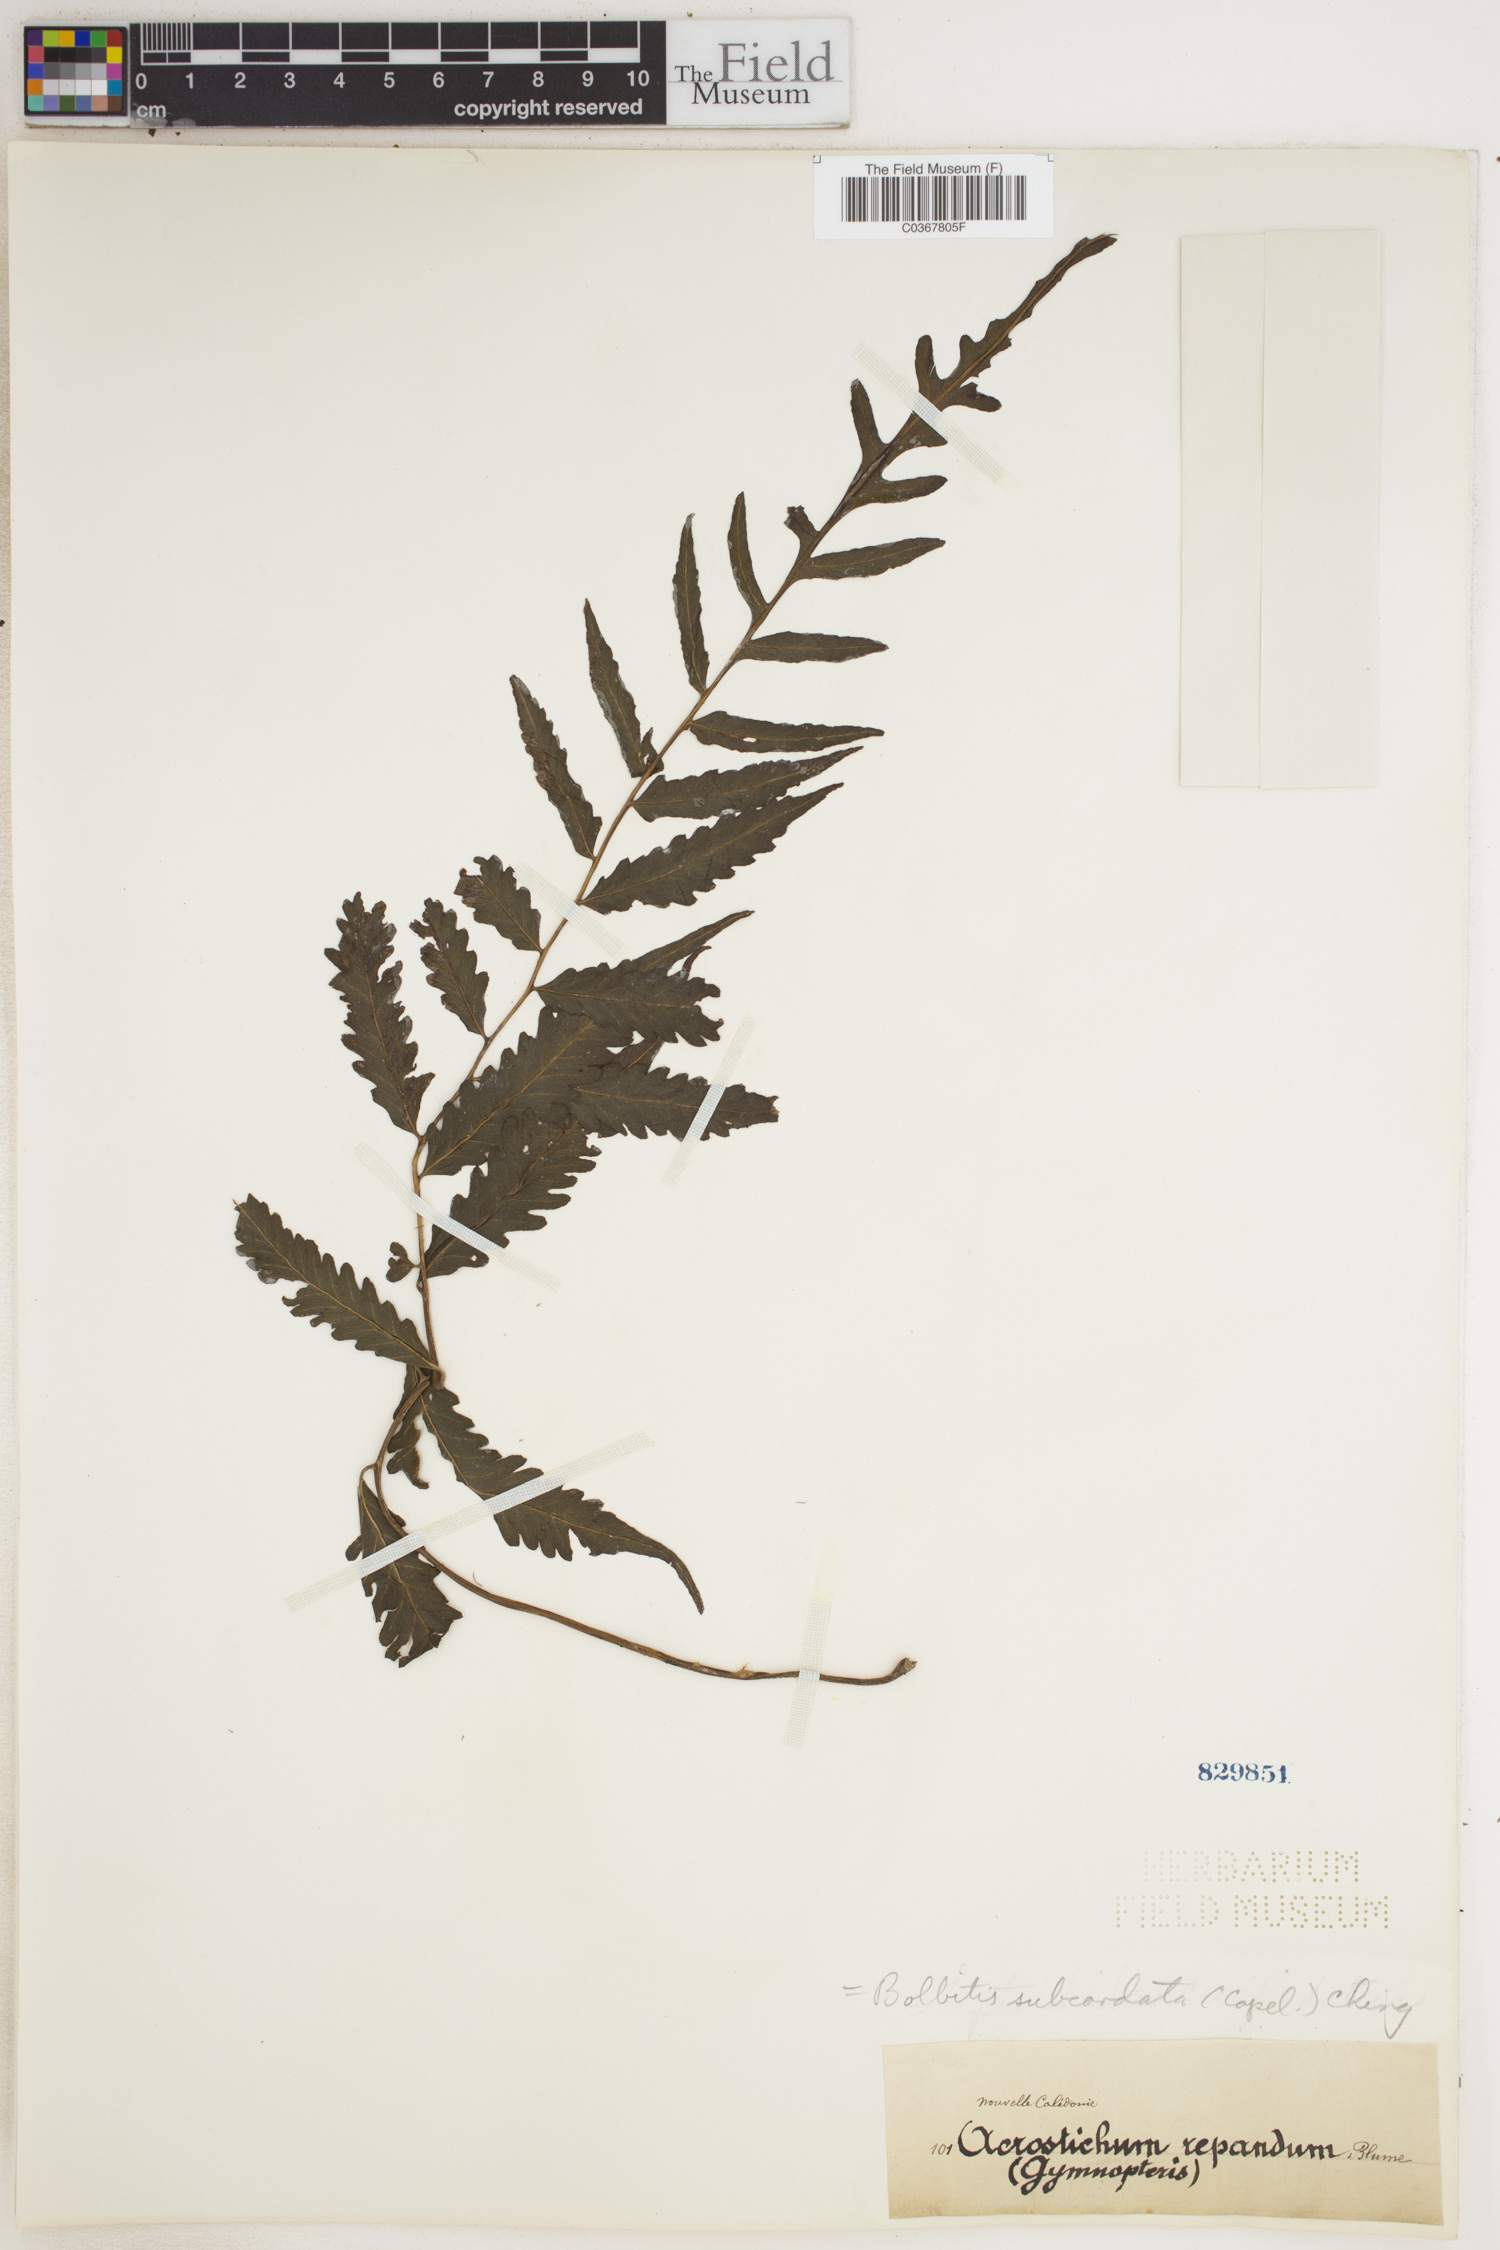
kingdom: Plantae
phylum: Tracheophyta
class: Polypodiopsida
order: Polypodiales
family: Dryopteridaceae
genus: Bolbitis
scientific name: Bolbitis subcordata
